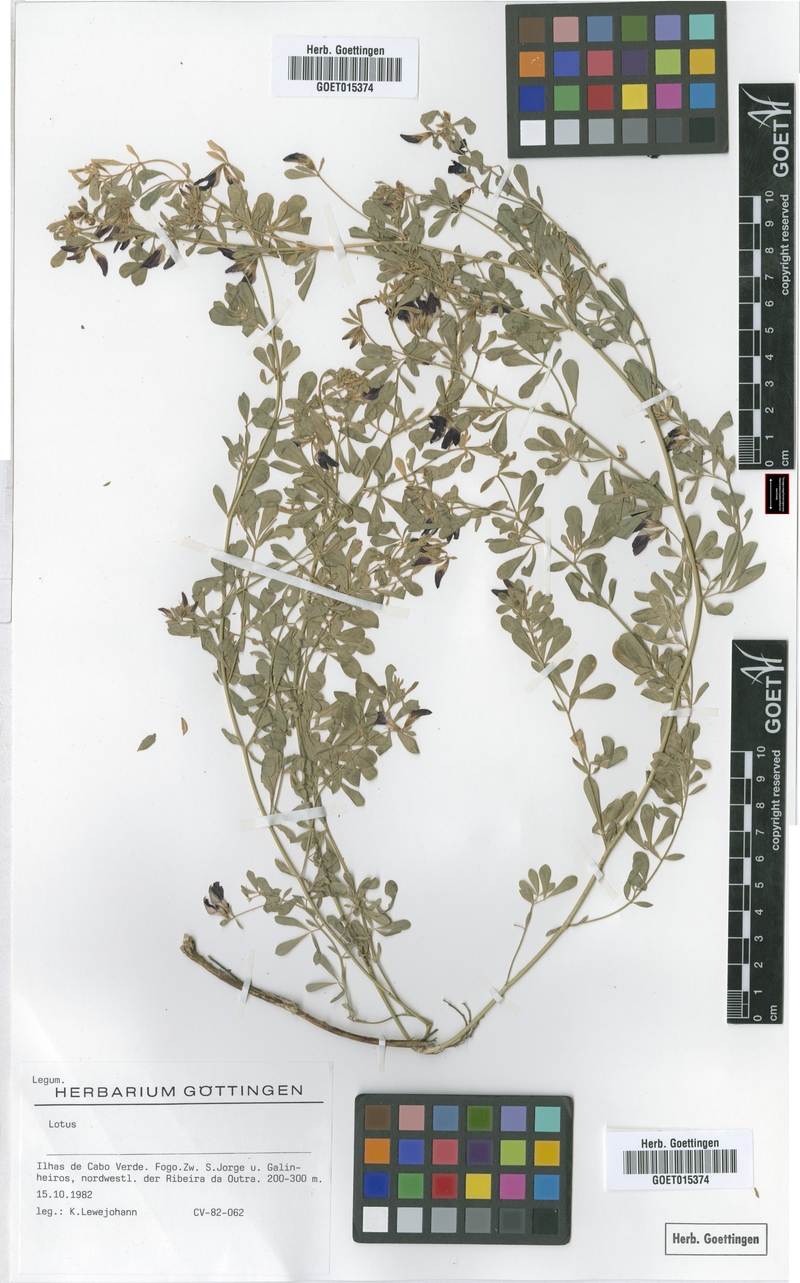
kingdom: Plantae
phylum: Tracheophyta
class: Magnoliopsida
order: Fabales
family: Fabaceae
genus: Lotus
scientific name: Lotus
